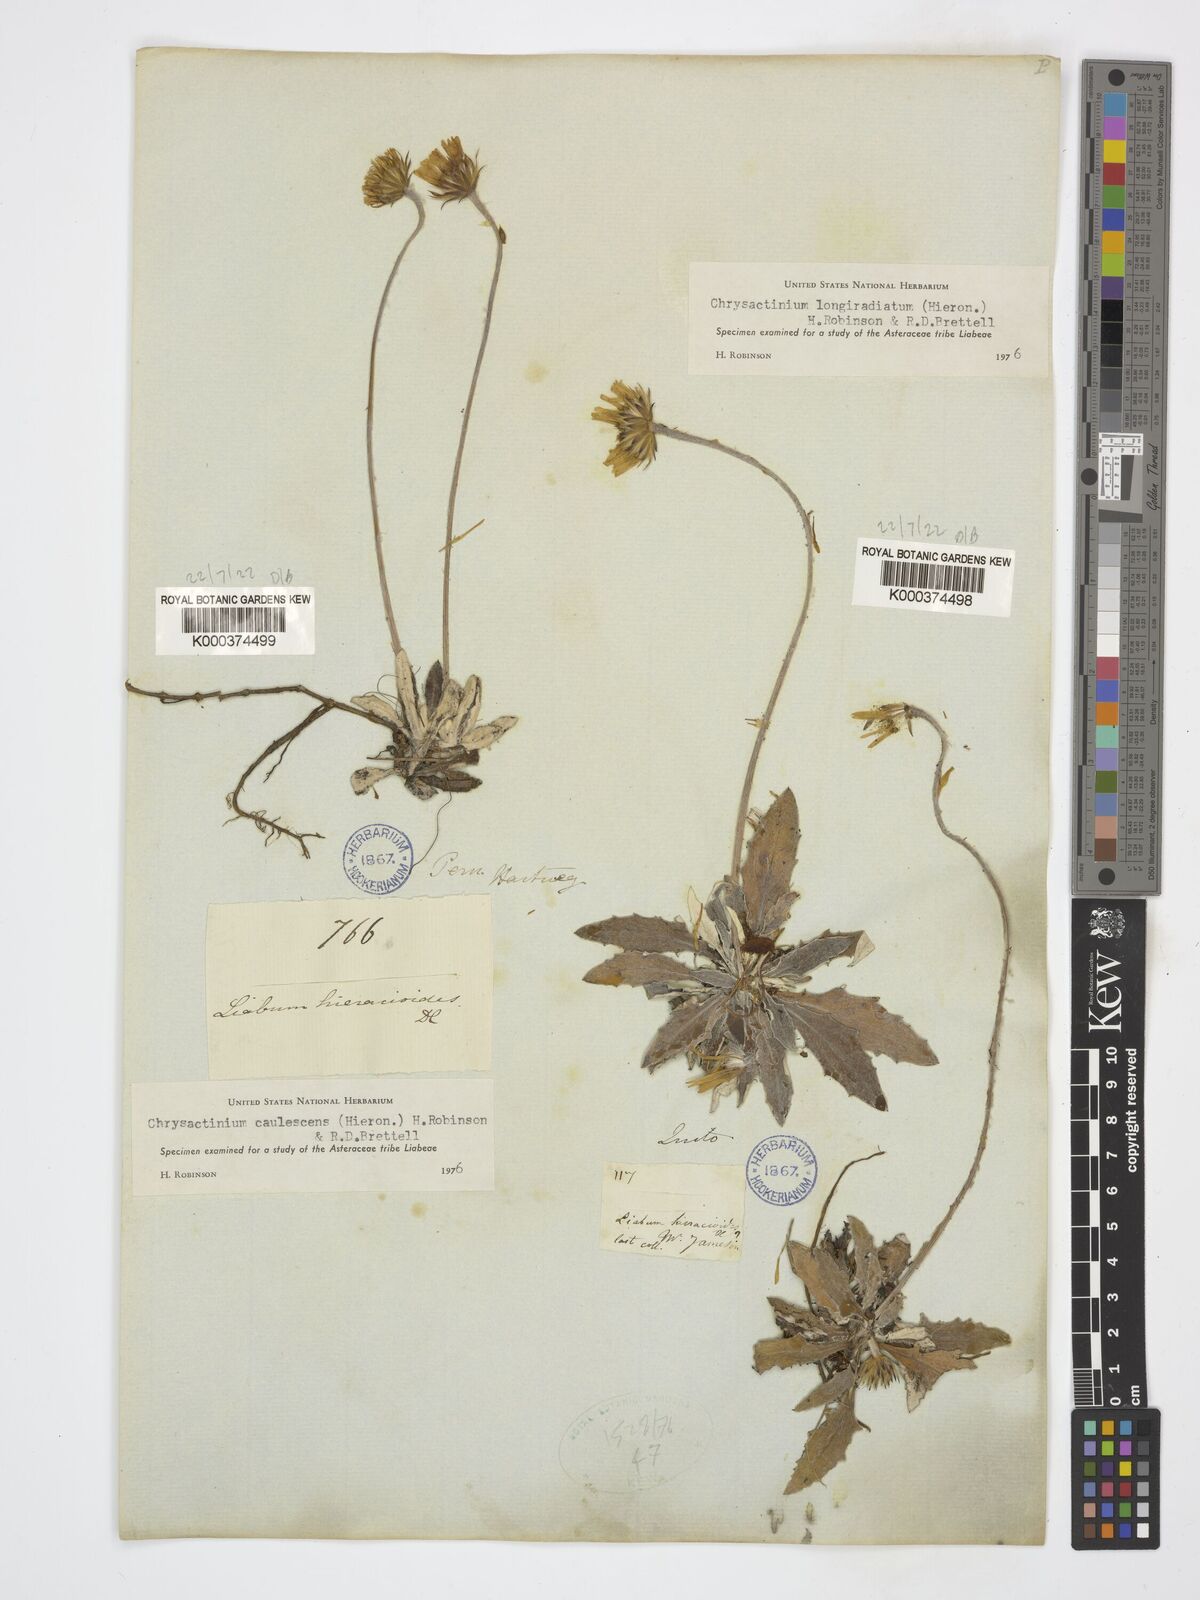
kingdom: Plantae
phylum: Tracheophyta
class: Magnoliopsida
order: Asterales
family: Asteraceae
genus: Chrysactinium
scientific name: Chrysactinium caulescens
